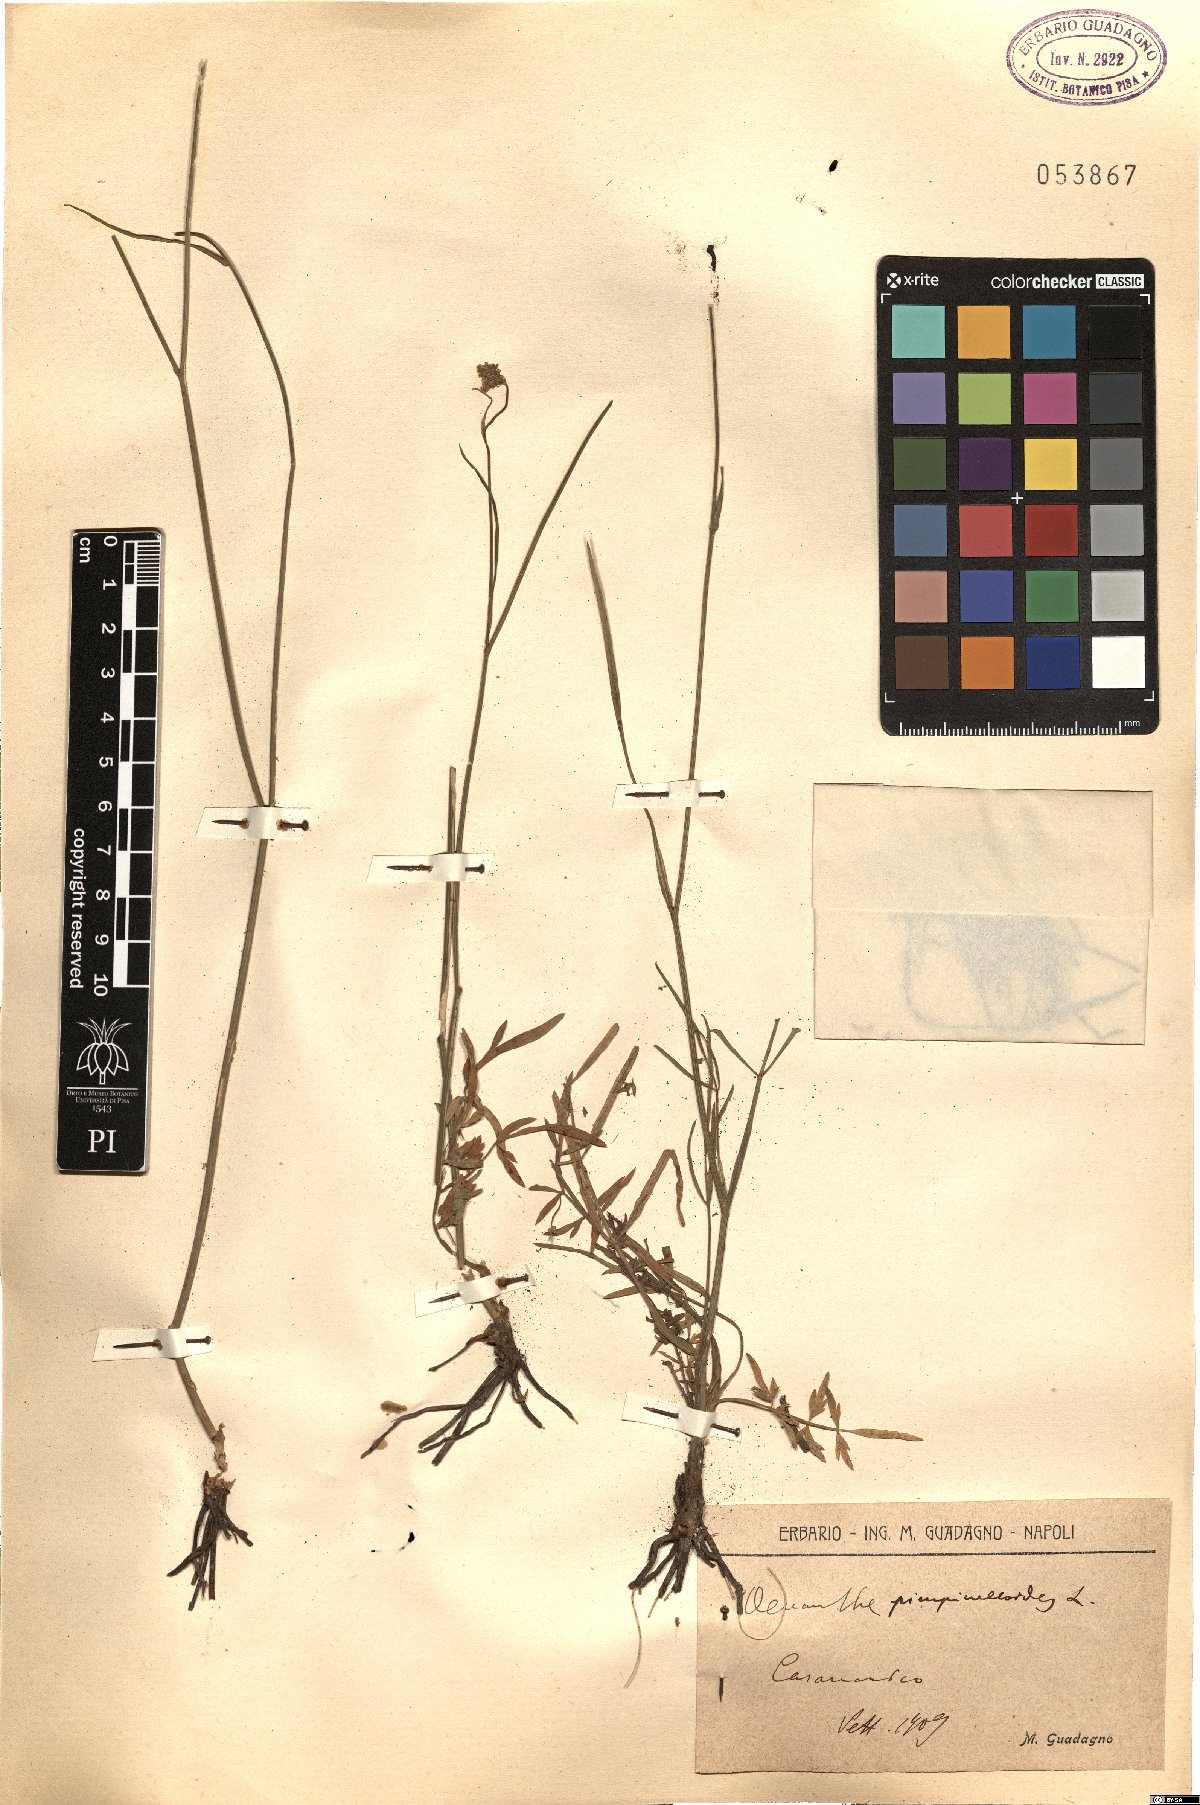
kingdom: Plantae
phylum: Tracheophyta
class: Magnoliopsida
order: Apiales
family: Apiaceae
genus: Oenanthe
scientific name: Oenanthe pimpinelloides
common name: Corky-fruited water-dropwort
